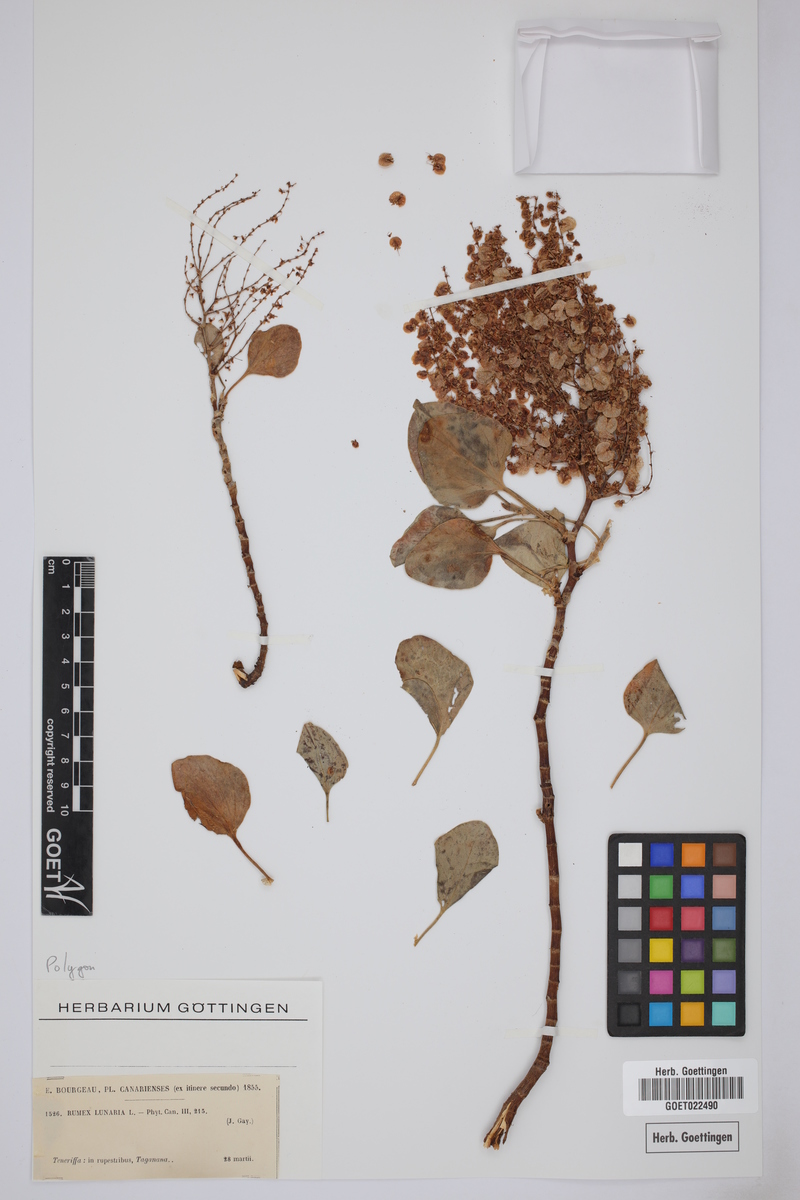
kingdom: Plantae
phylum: Tracheophyta
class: Magnoliopsida
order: Caryophyllales
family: Polygonaceae
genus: Rumex
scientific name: Rumex lunaria
